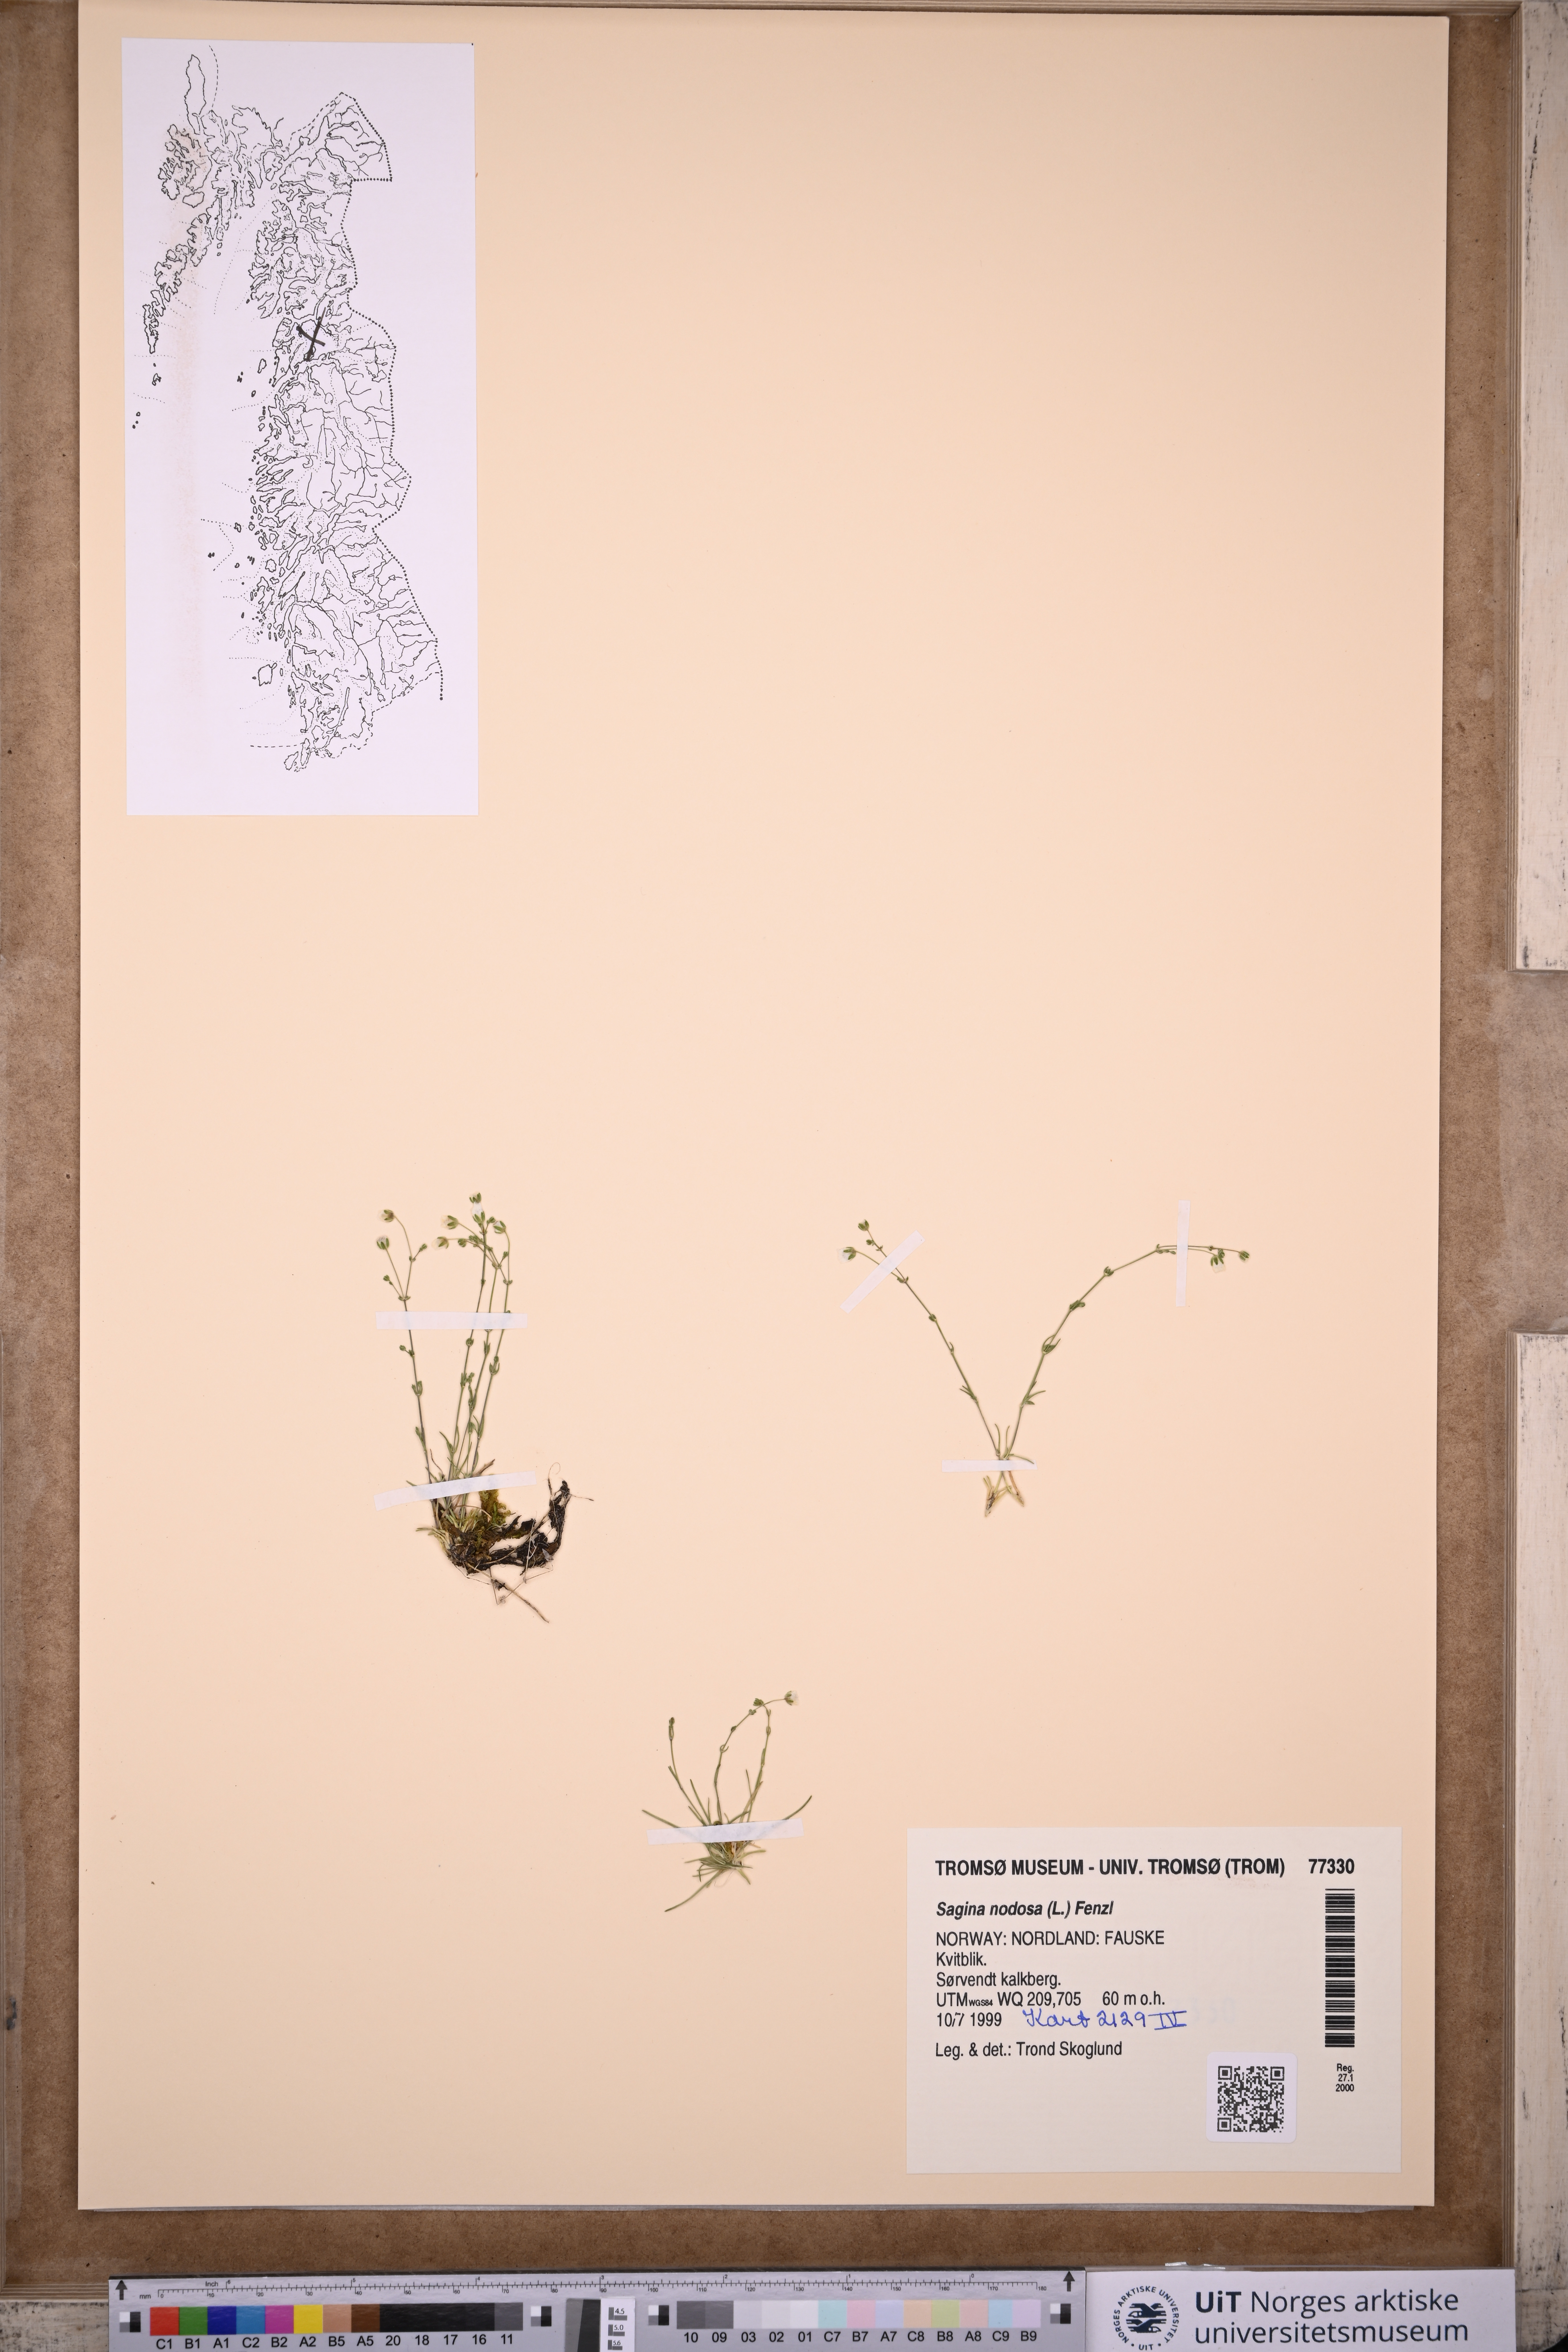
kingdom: Plantae
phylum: Tracheophyta
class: Magnoliopsida
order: Caryophyllales
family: Caryophyllaceae
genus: Sagina
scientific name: Sagina nodosa
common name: Knotted pearlwort
